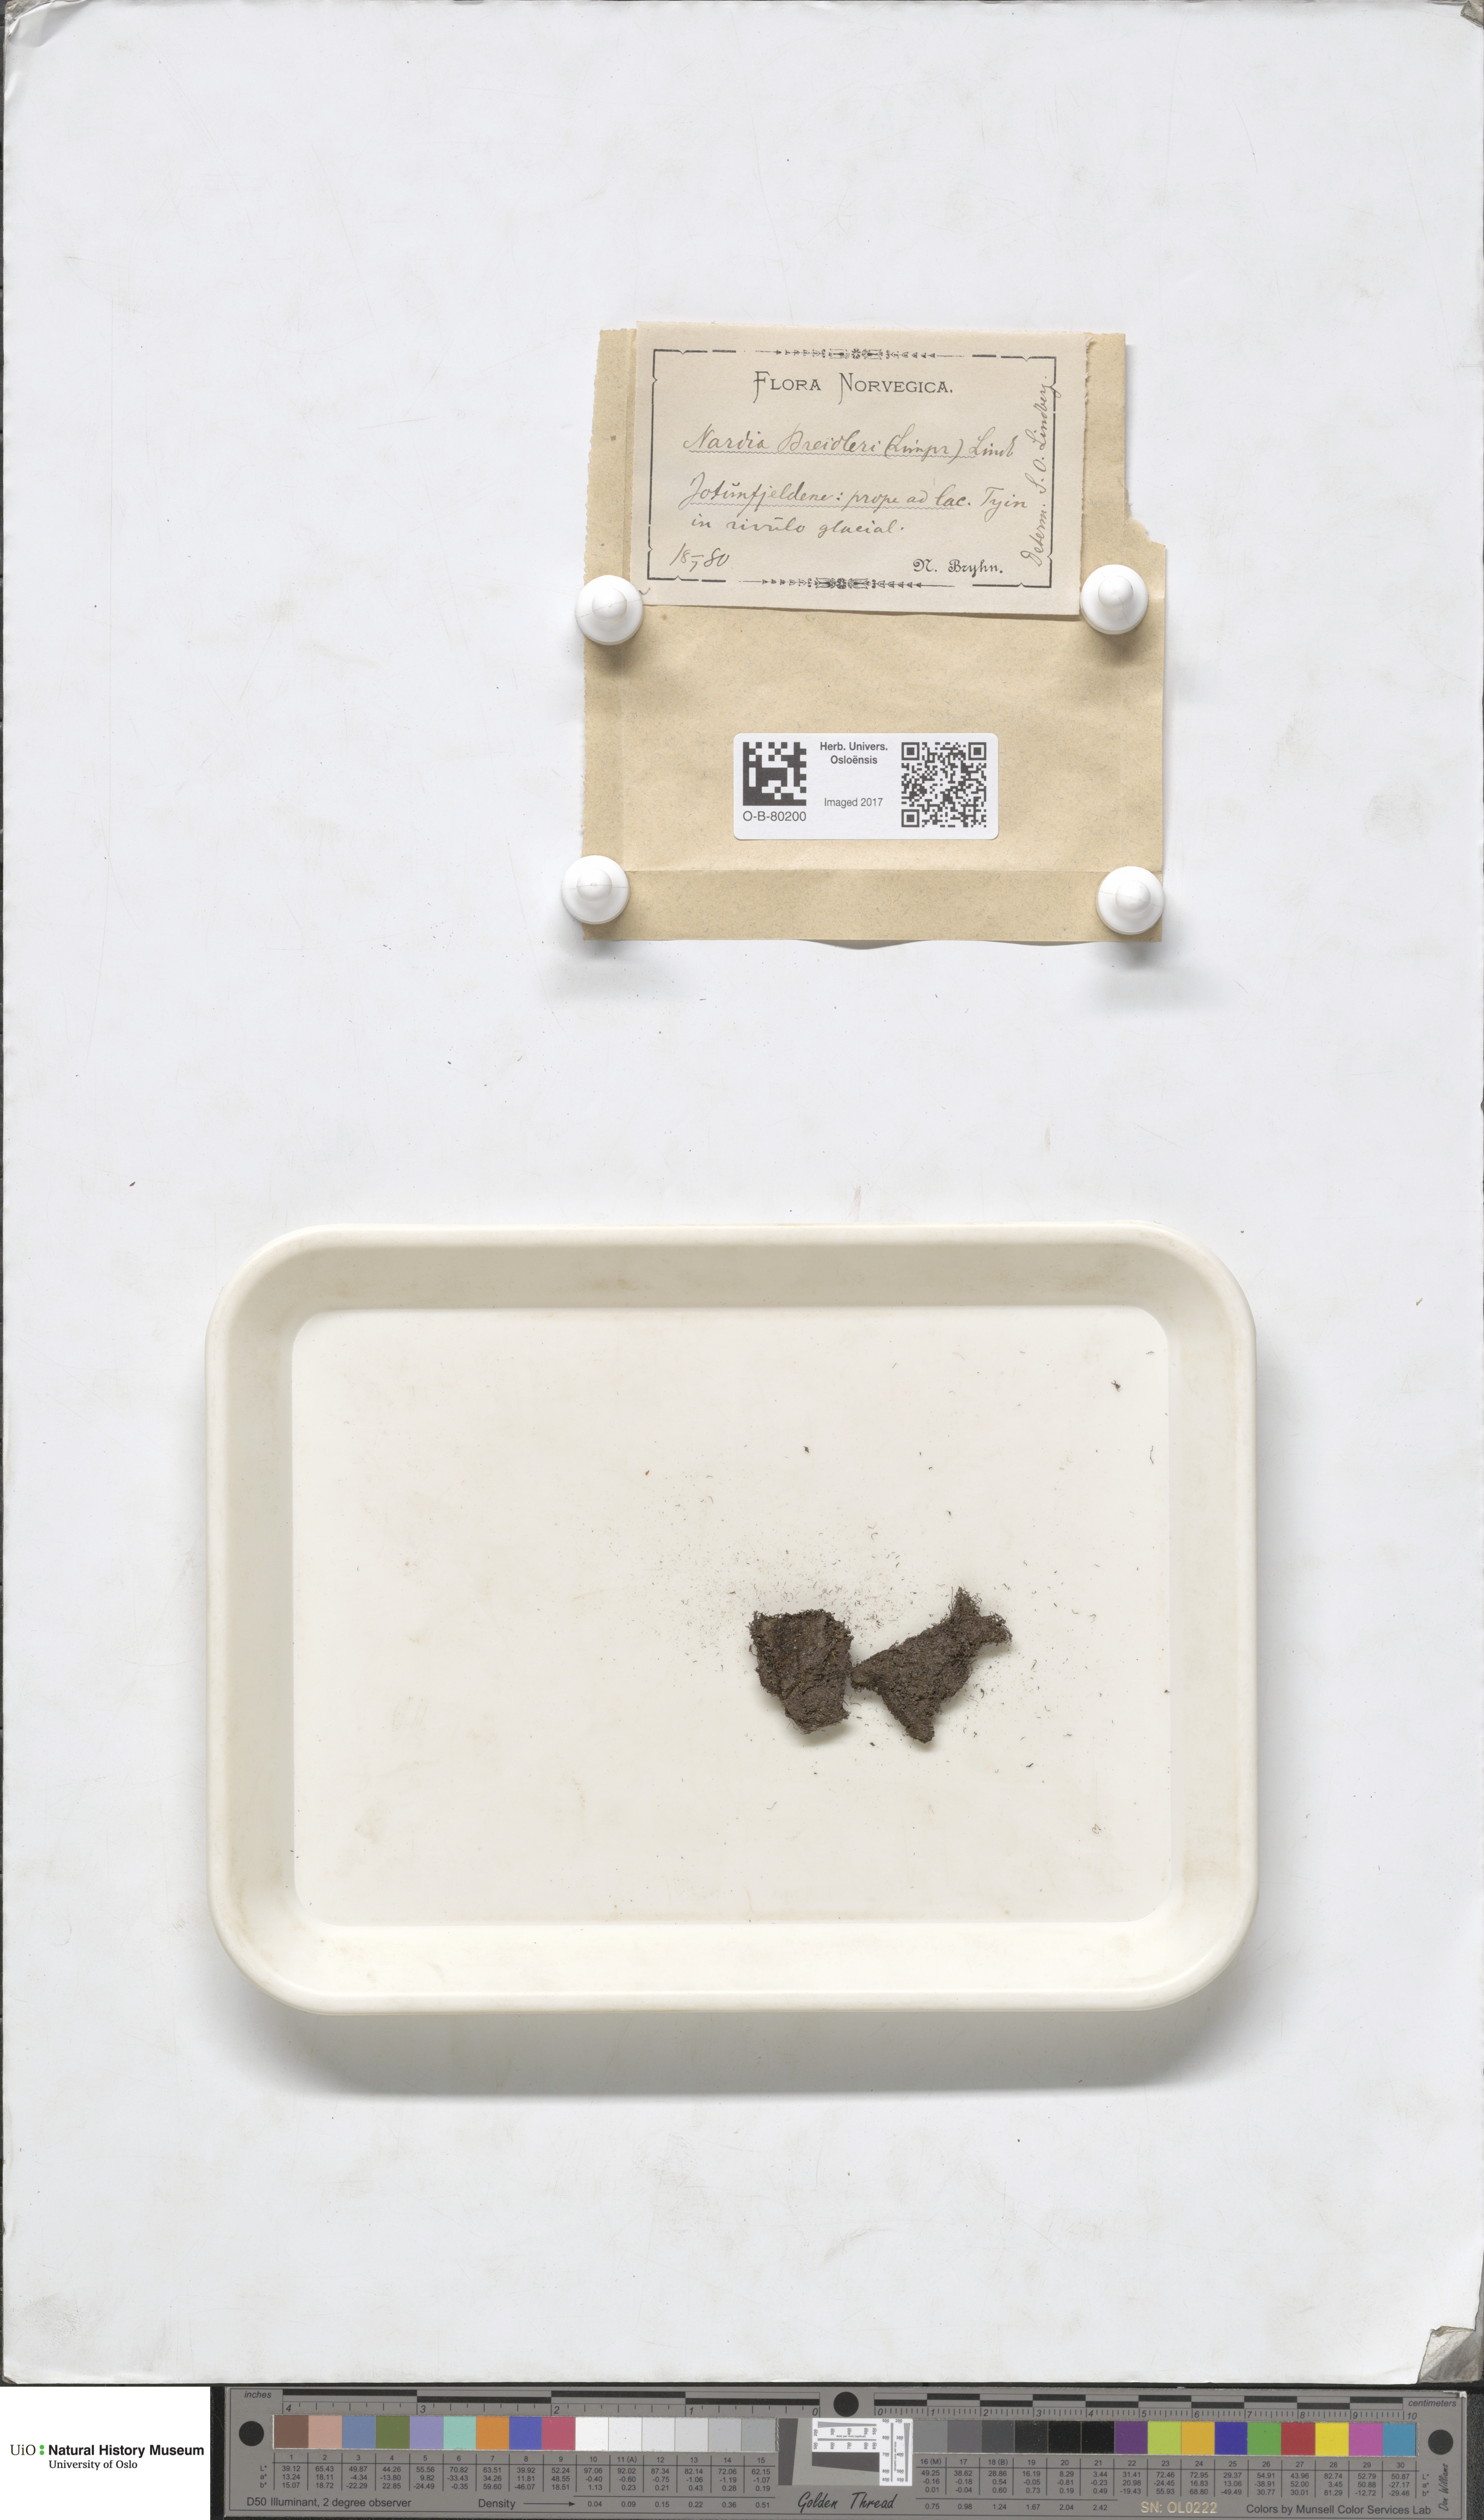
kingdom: Plantae
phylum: Marchantiophyta
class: Jungermanniopsida
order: Jungermanniales
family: Gymnomitriaceae
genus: Nardia
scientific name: Nardia breidleri
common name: Book flapwort
